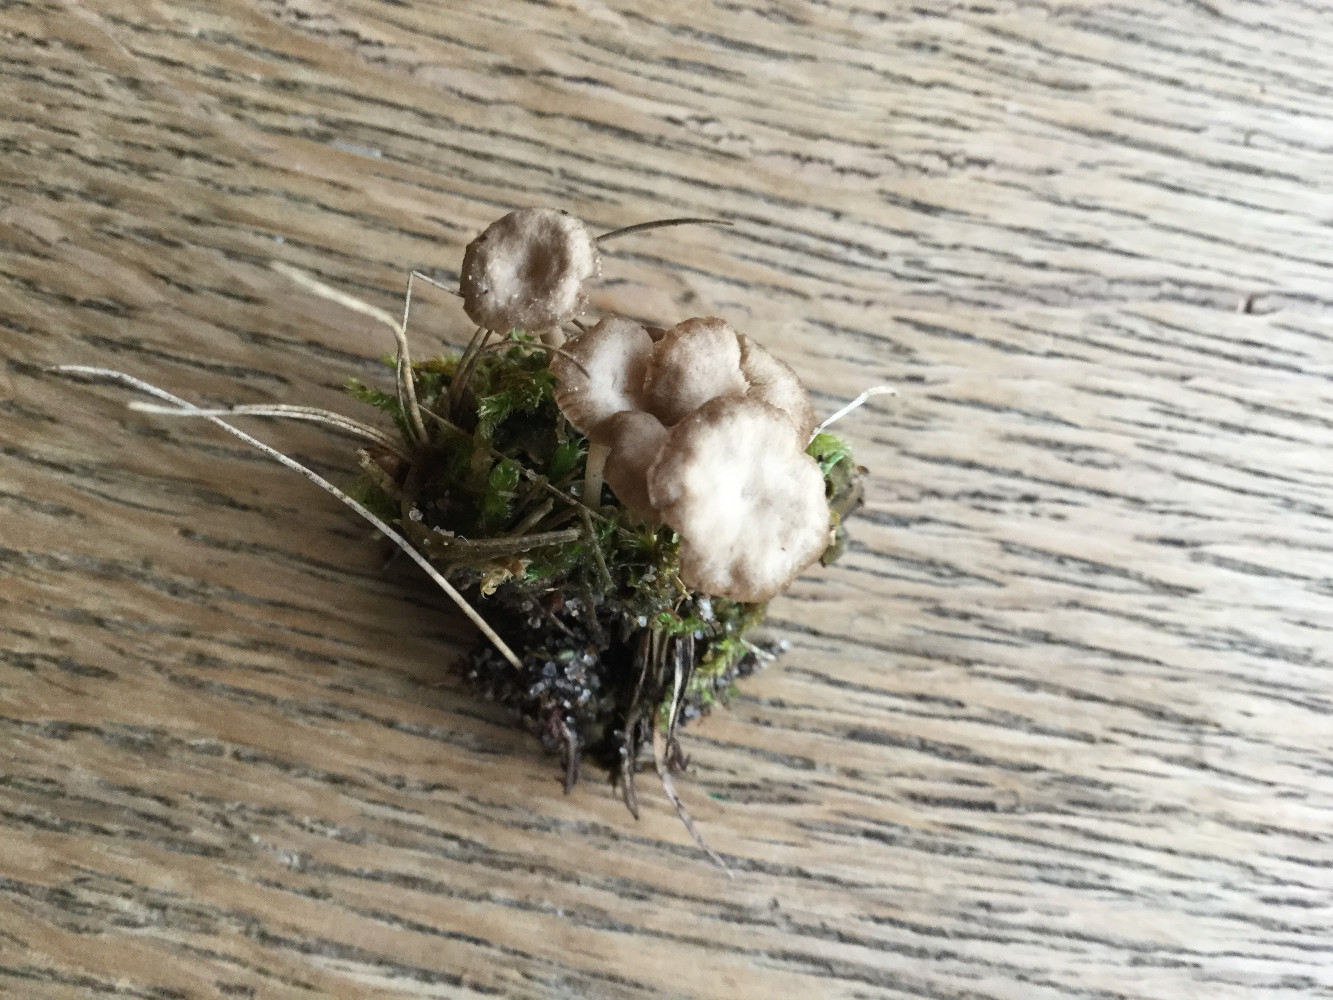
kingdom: Fungi
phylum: Basidiomycota
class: Agaricomycetes
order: Agaricales
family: Hygrophoraceae
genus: Arrhenia
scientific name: Arrhenia peltigerina
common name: skjoldlav-fontænehat
